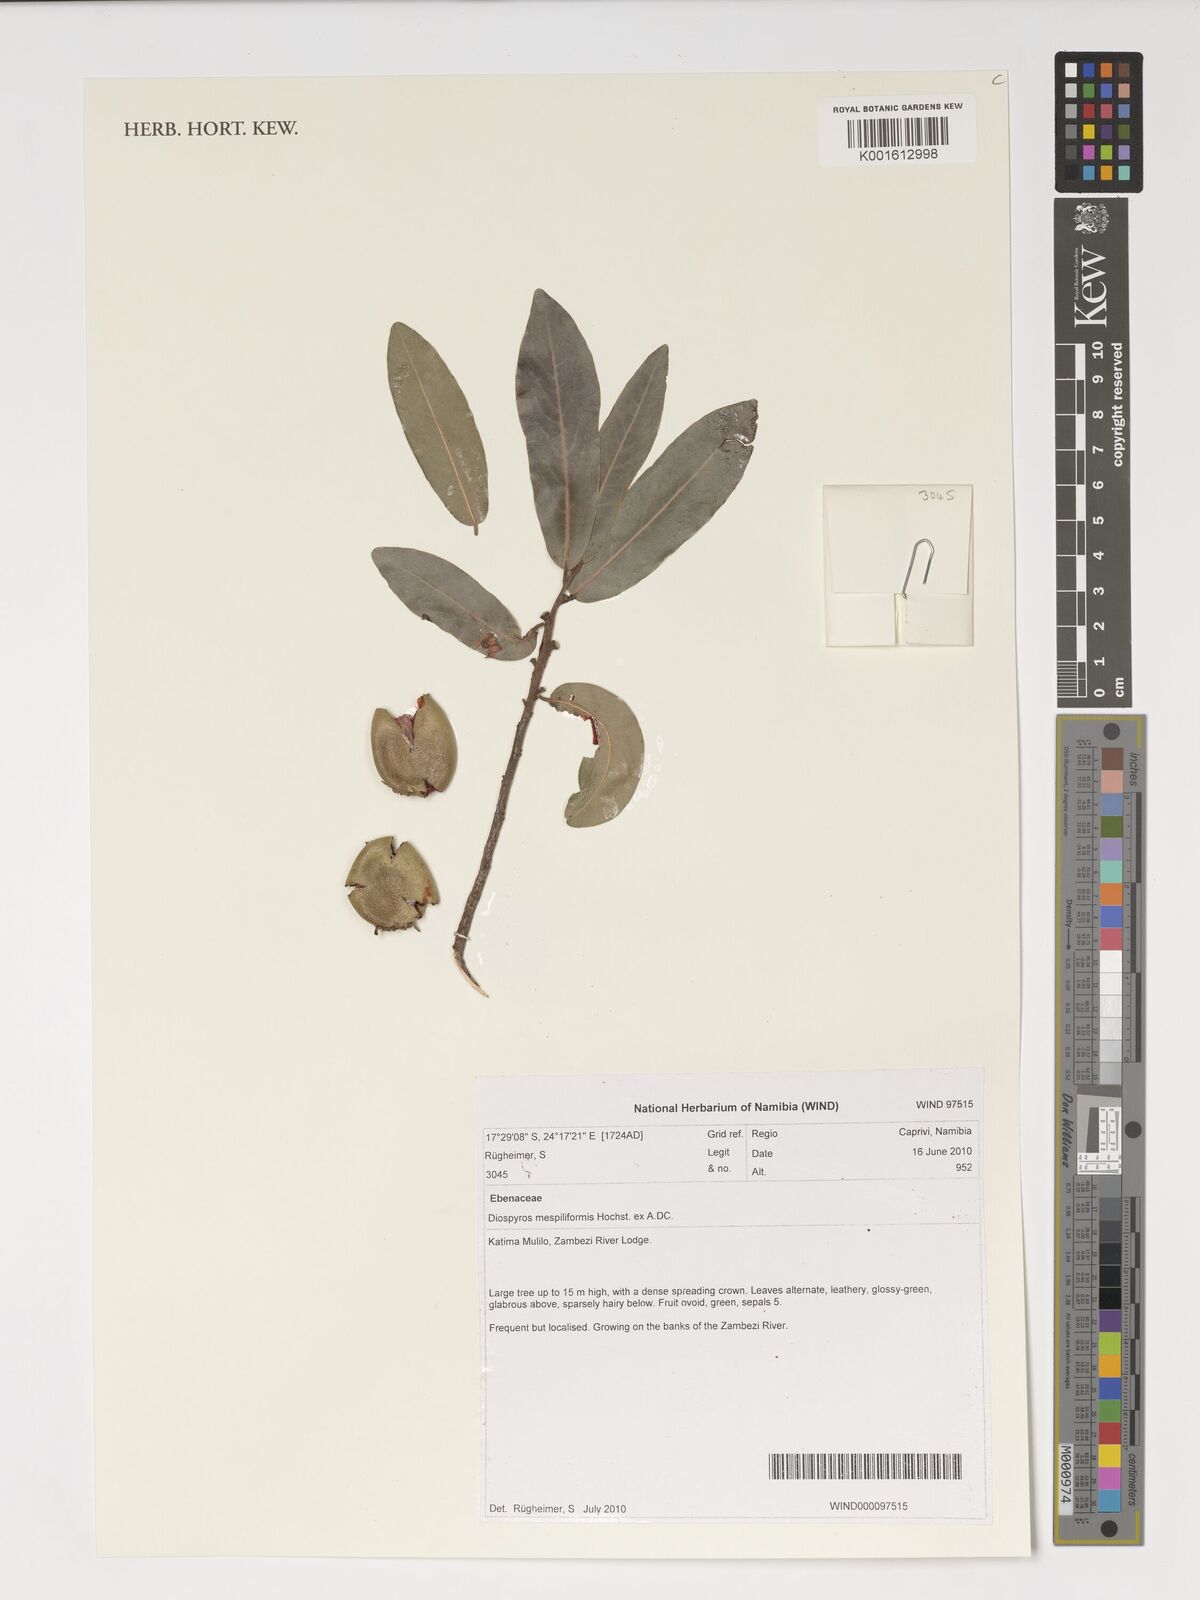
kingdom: Plantae
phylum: Tracheophyta
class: Magnoliopsida
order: Ericales
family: Ebenaceae
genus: Diospyros
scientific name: Diospyros mespiliformis
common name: Ebony diospyros
